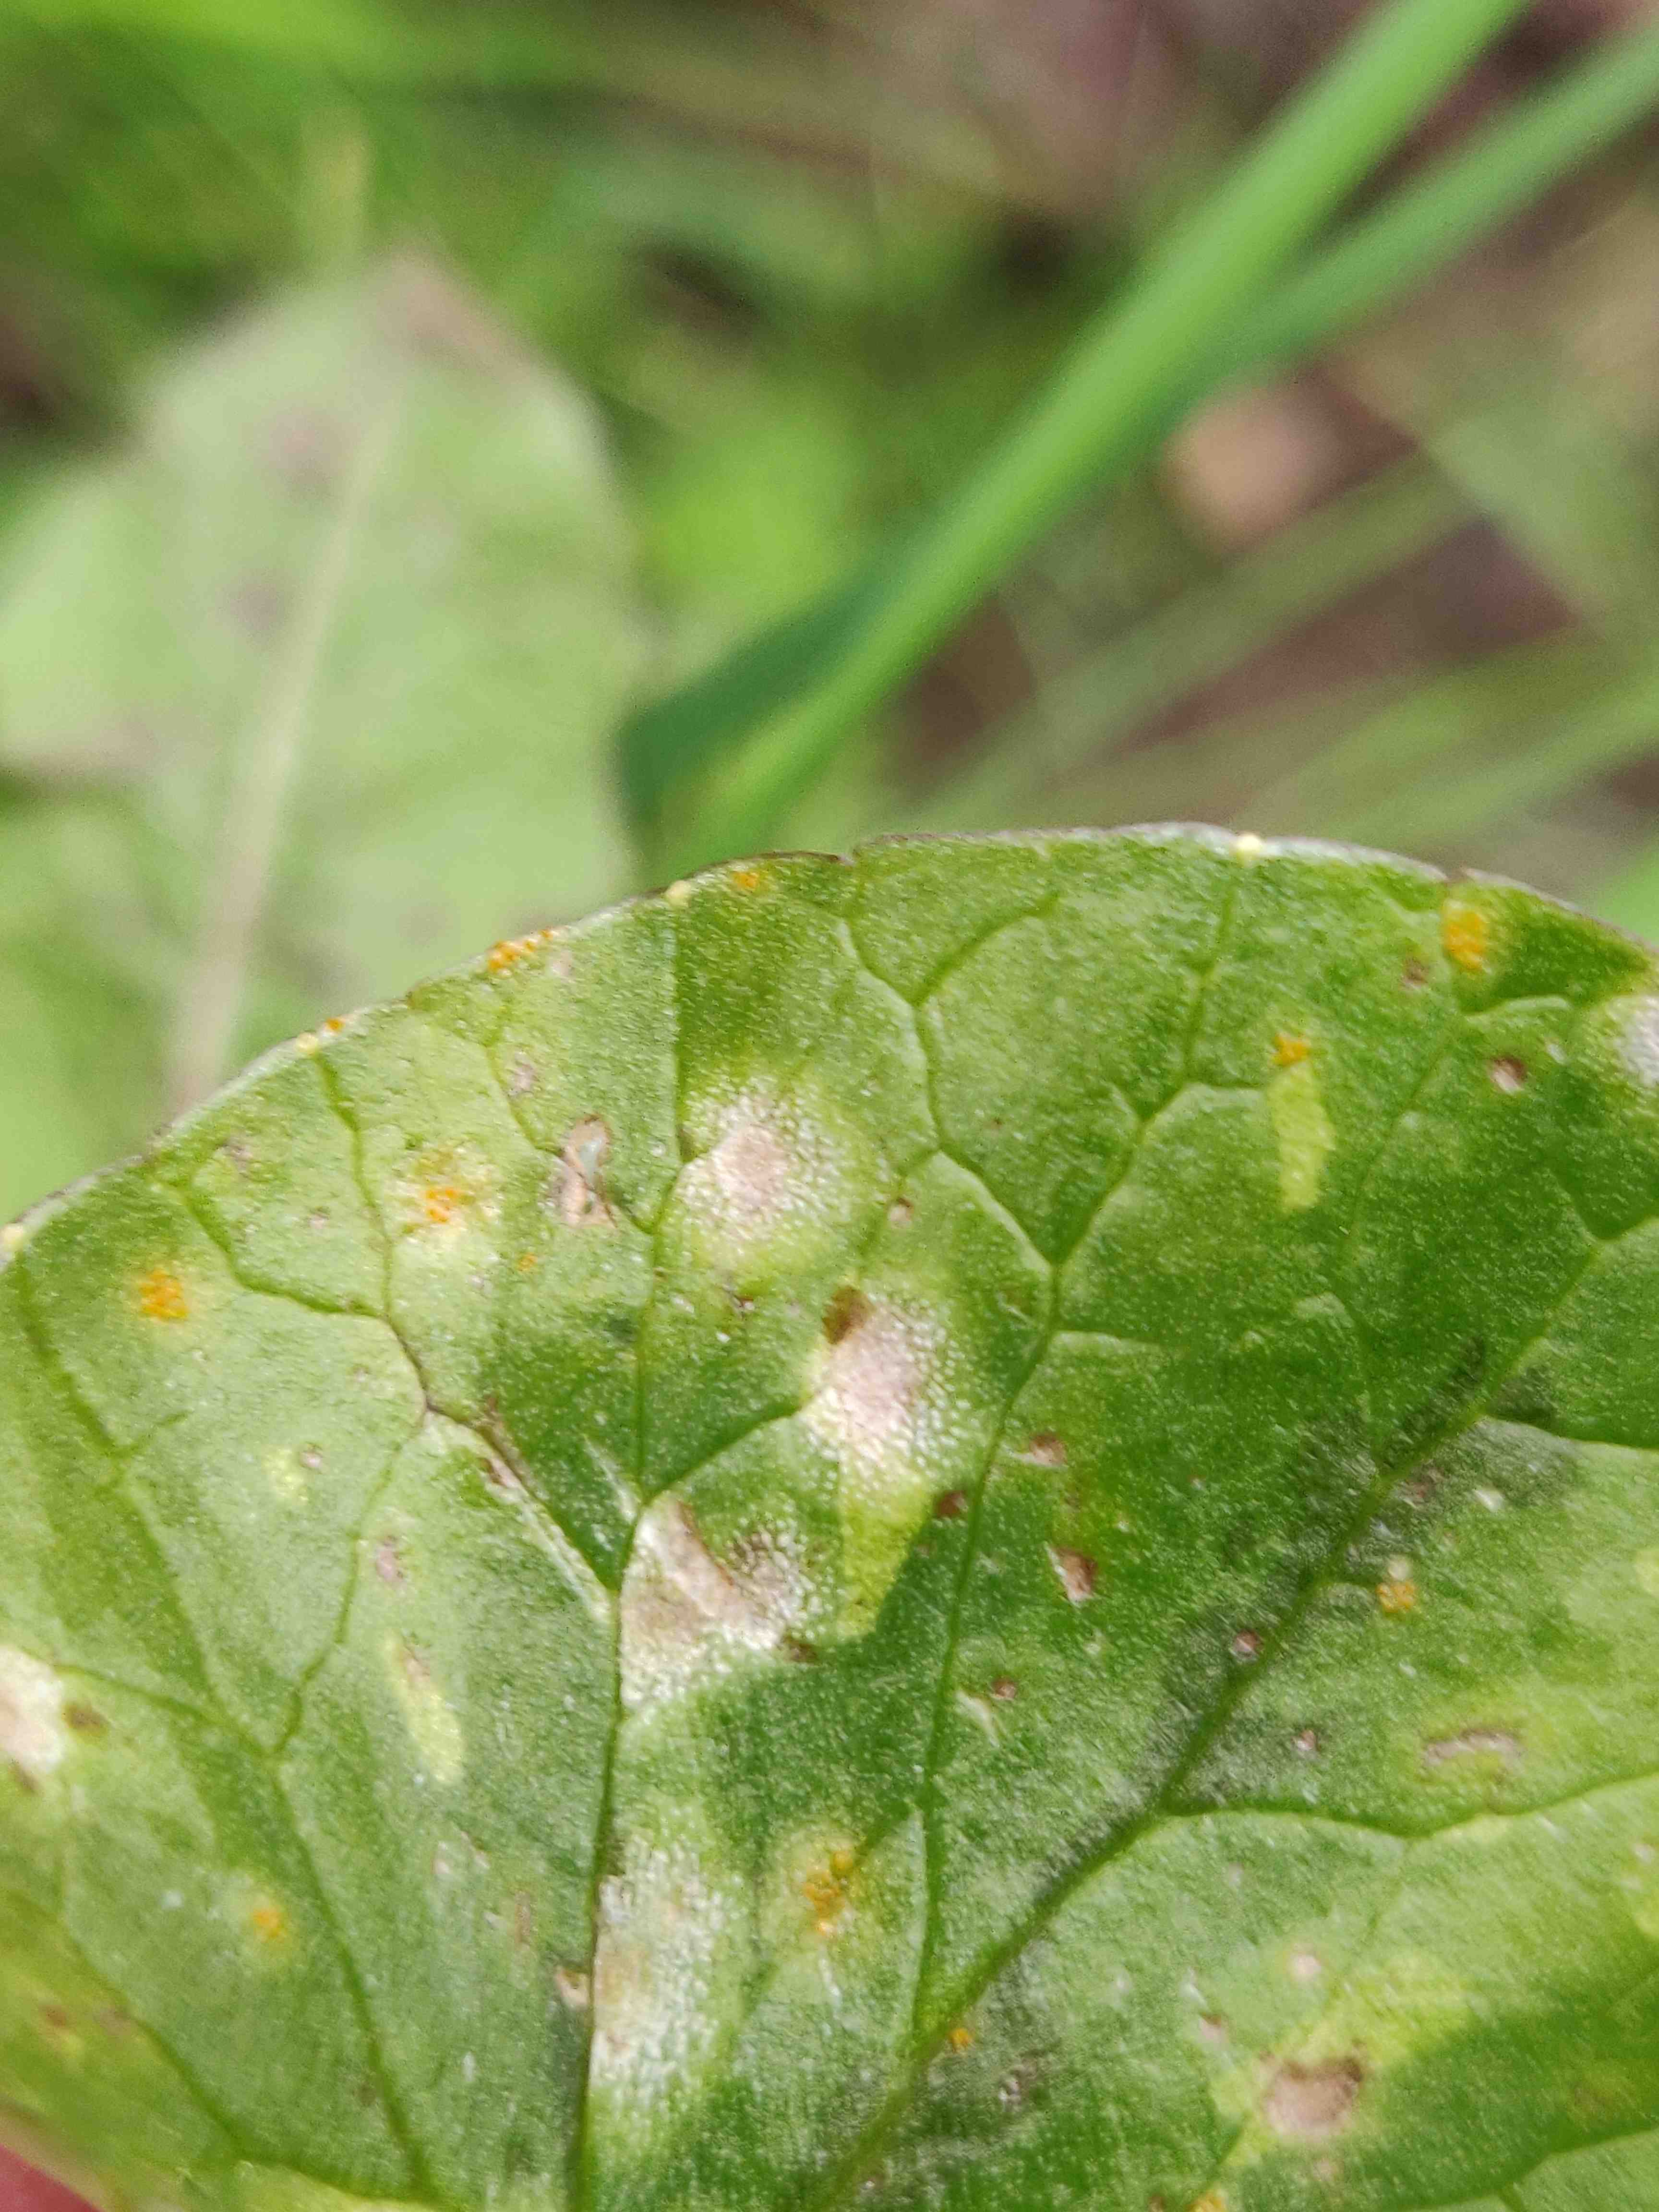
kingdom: Fungi
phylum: Basidiomycota
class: Exobasidiomycetes
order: Entylomatales
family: Entylomataceae
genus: Entyloma
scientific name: Entyloma ficariae
